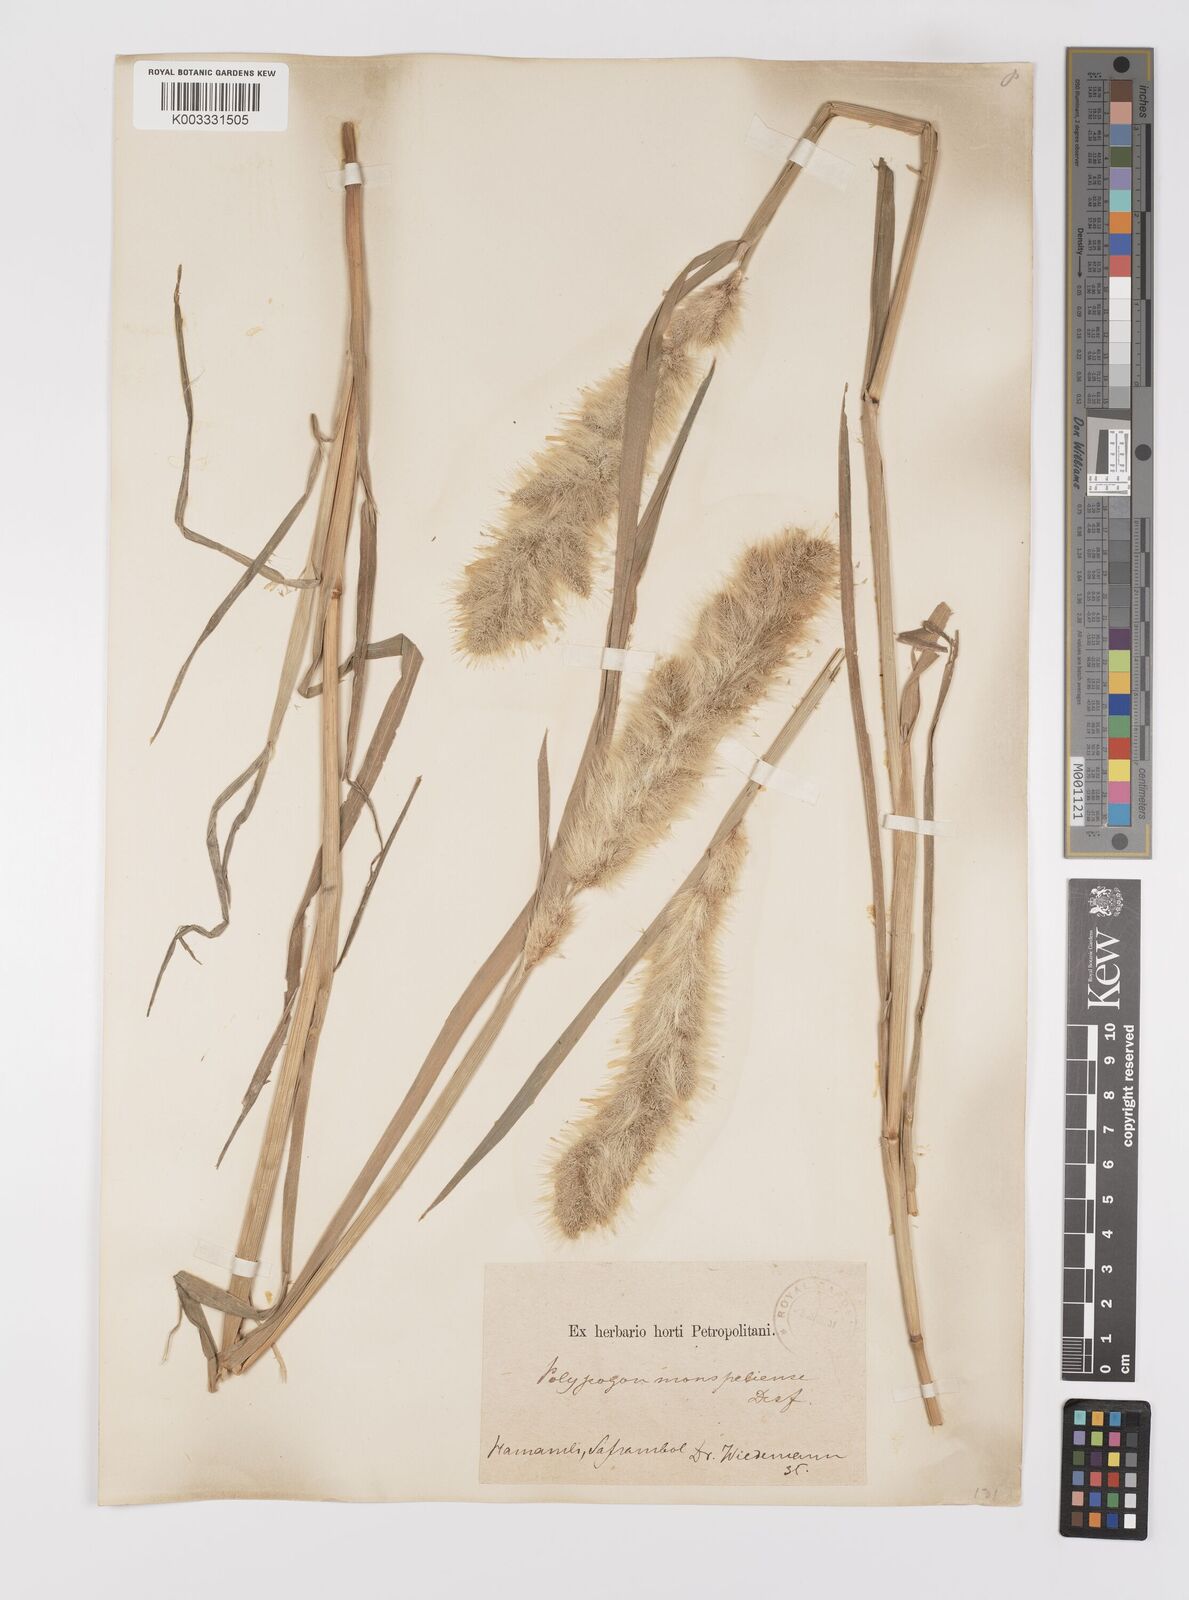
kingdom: Plantae
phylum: Tracheophyta
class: Liliopsida
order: Poales
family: Poaceae
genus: Polypogon
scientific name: Polypogon monspeliensis
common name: Annual rabbitsfoot grass
